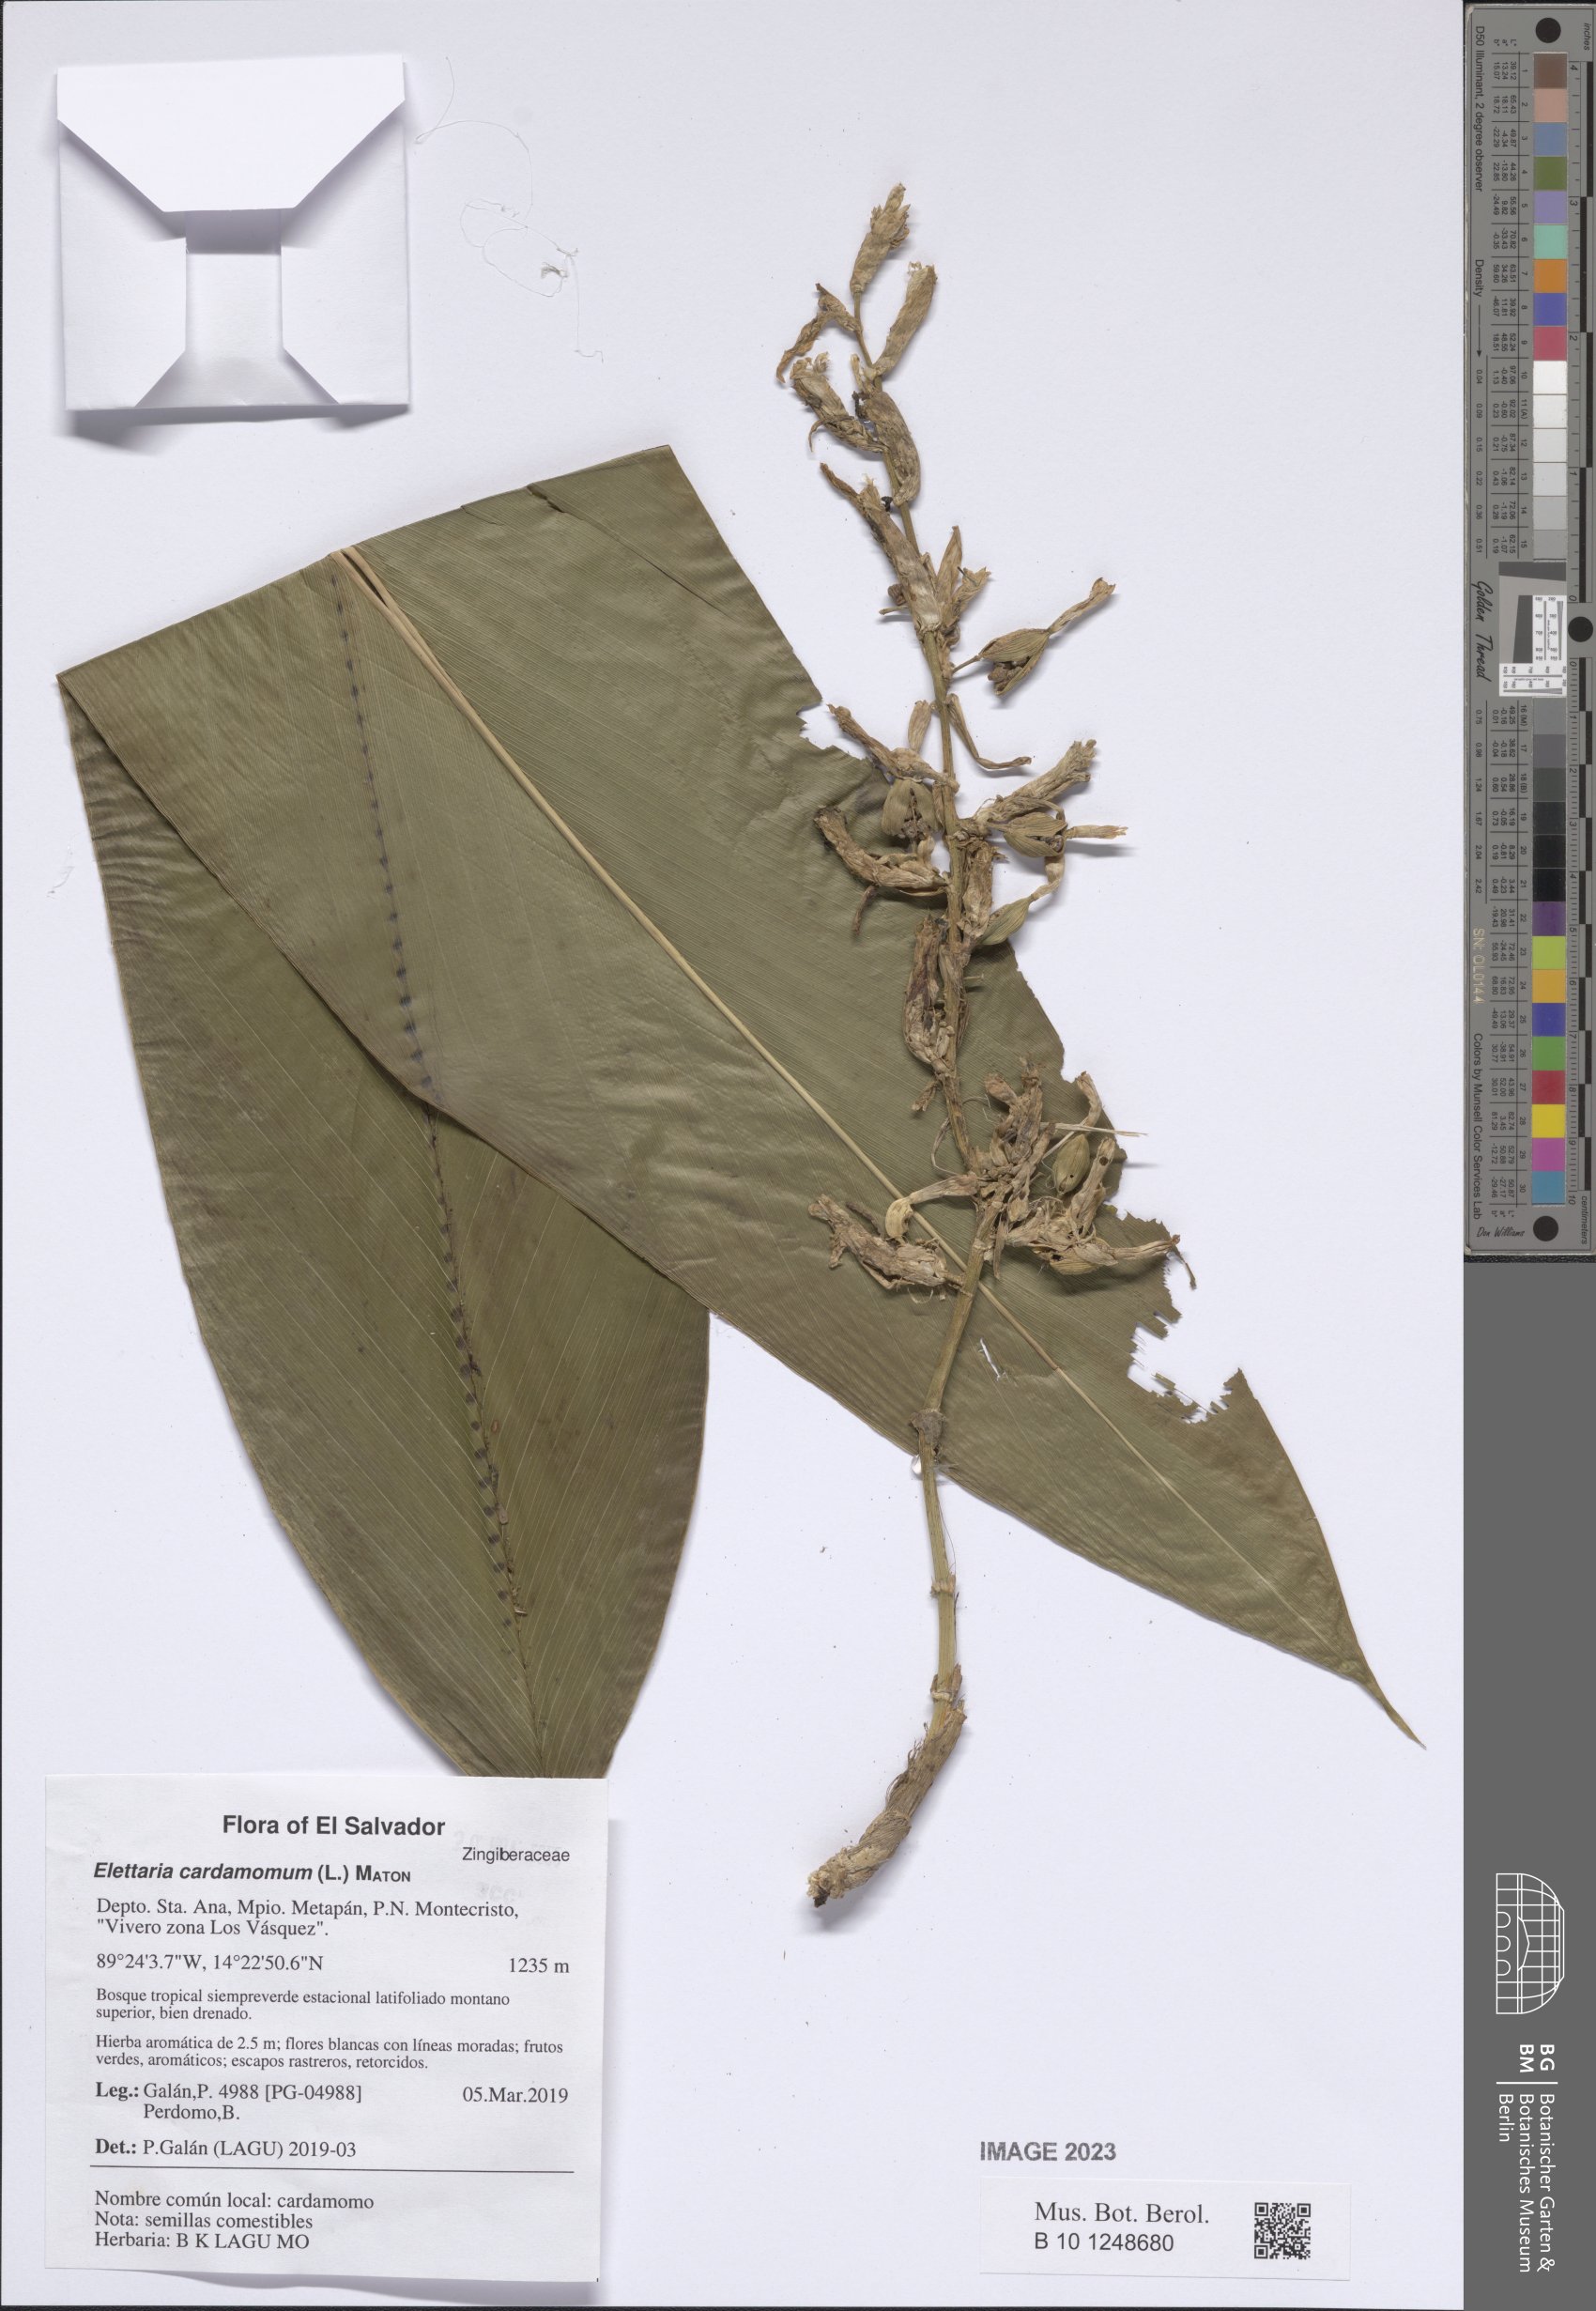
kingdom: Plantae
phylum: Tracheophyta
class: Liliopsida
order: Zingiberales
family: Zingiberaceae
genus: Elettaria
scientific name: Elettaria cardamomum
